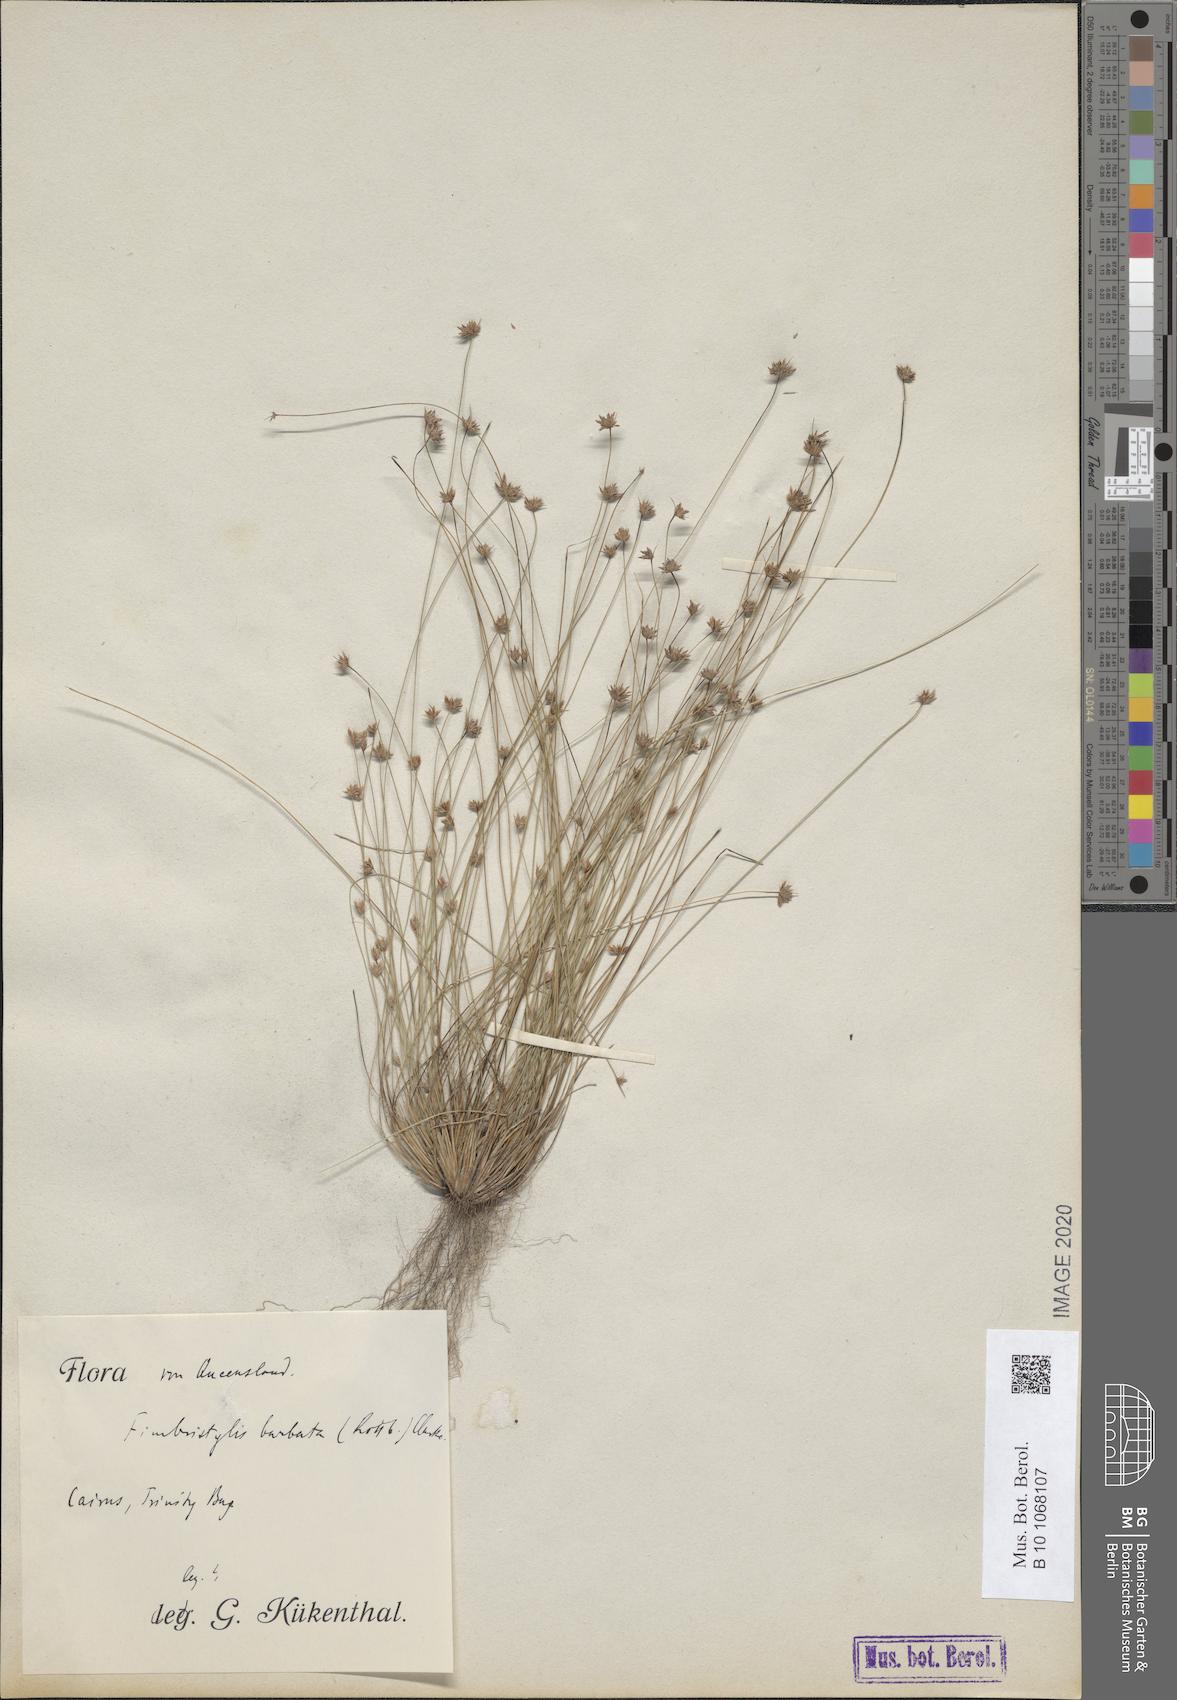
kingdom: Plantae
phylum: Tracheophyta
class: Liliopsida
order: Poales
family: Cyperaceae
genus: Bulbostylis
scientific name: Bulbostylis barbata
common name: Watergrass
